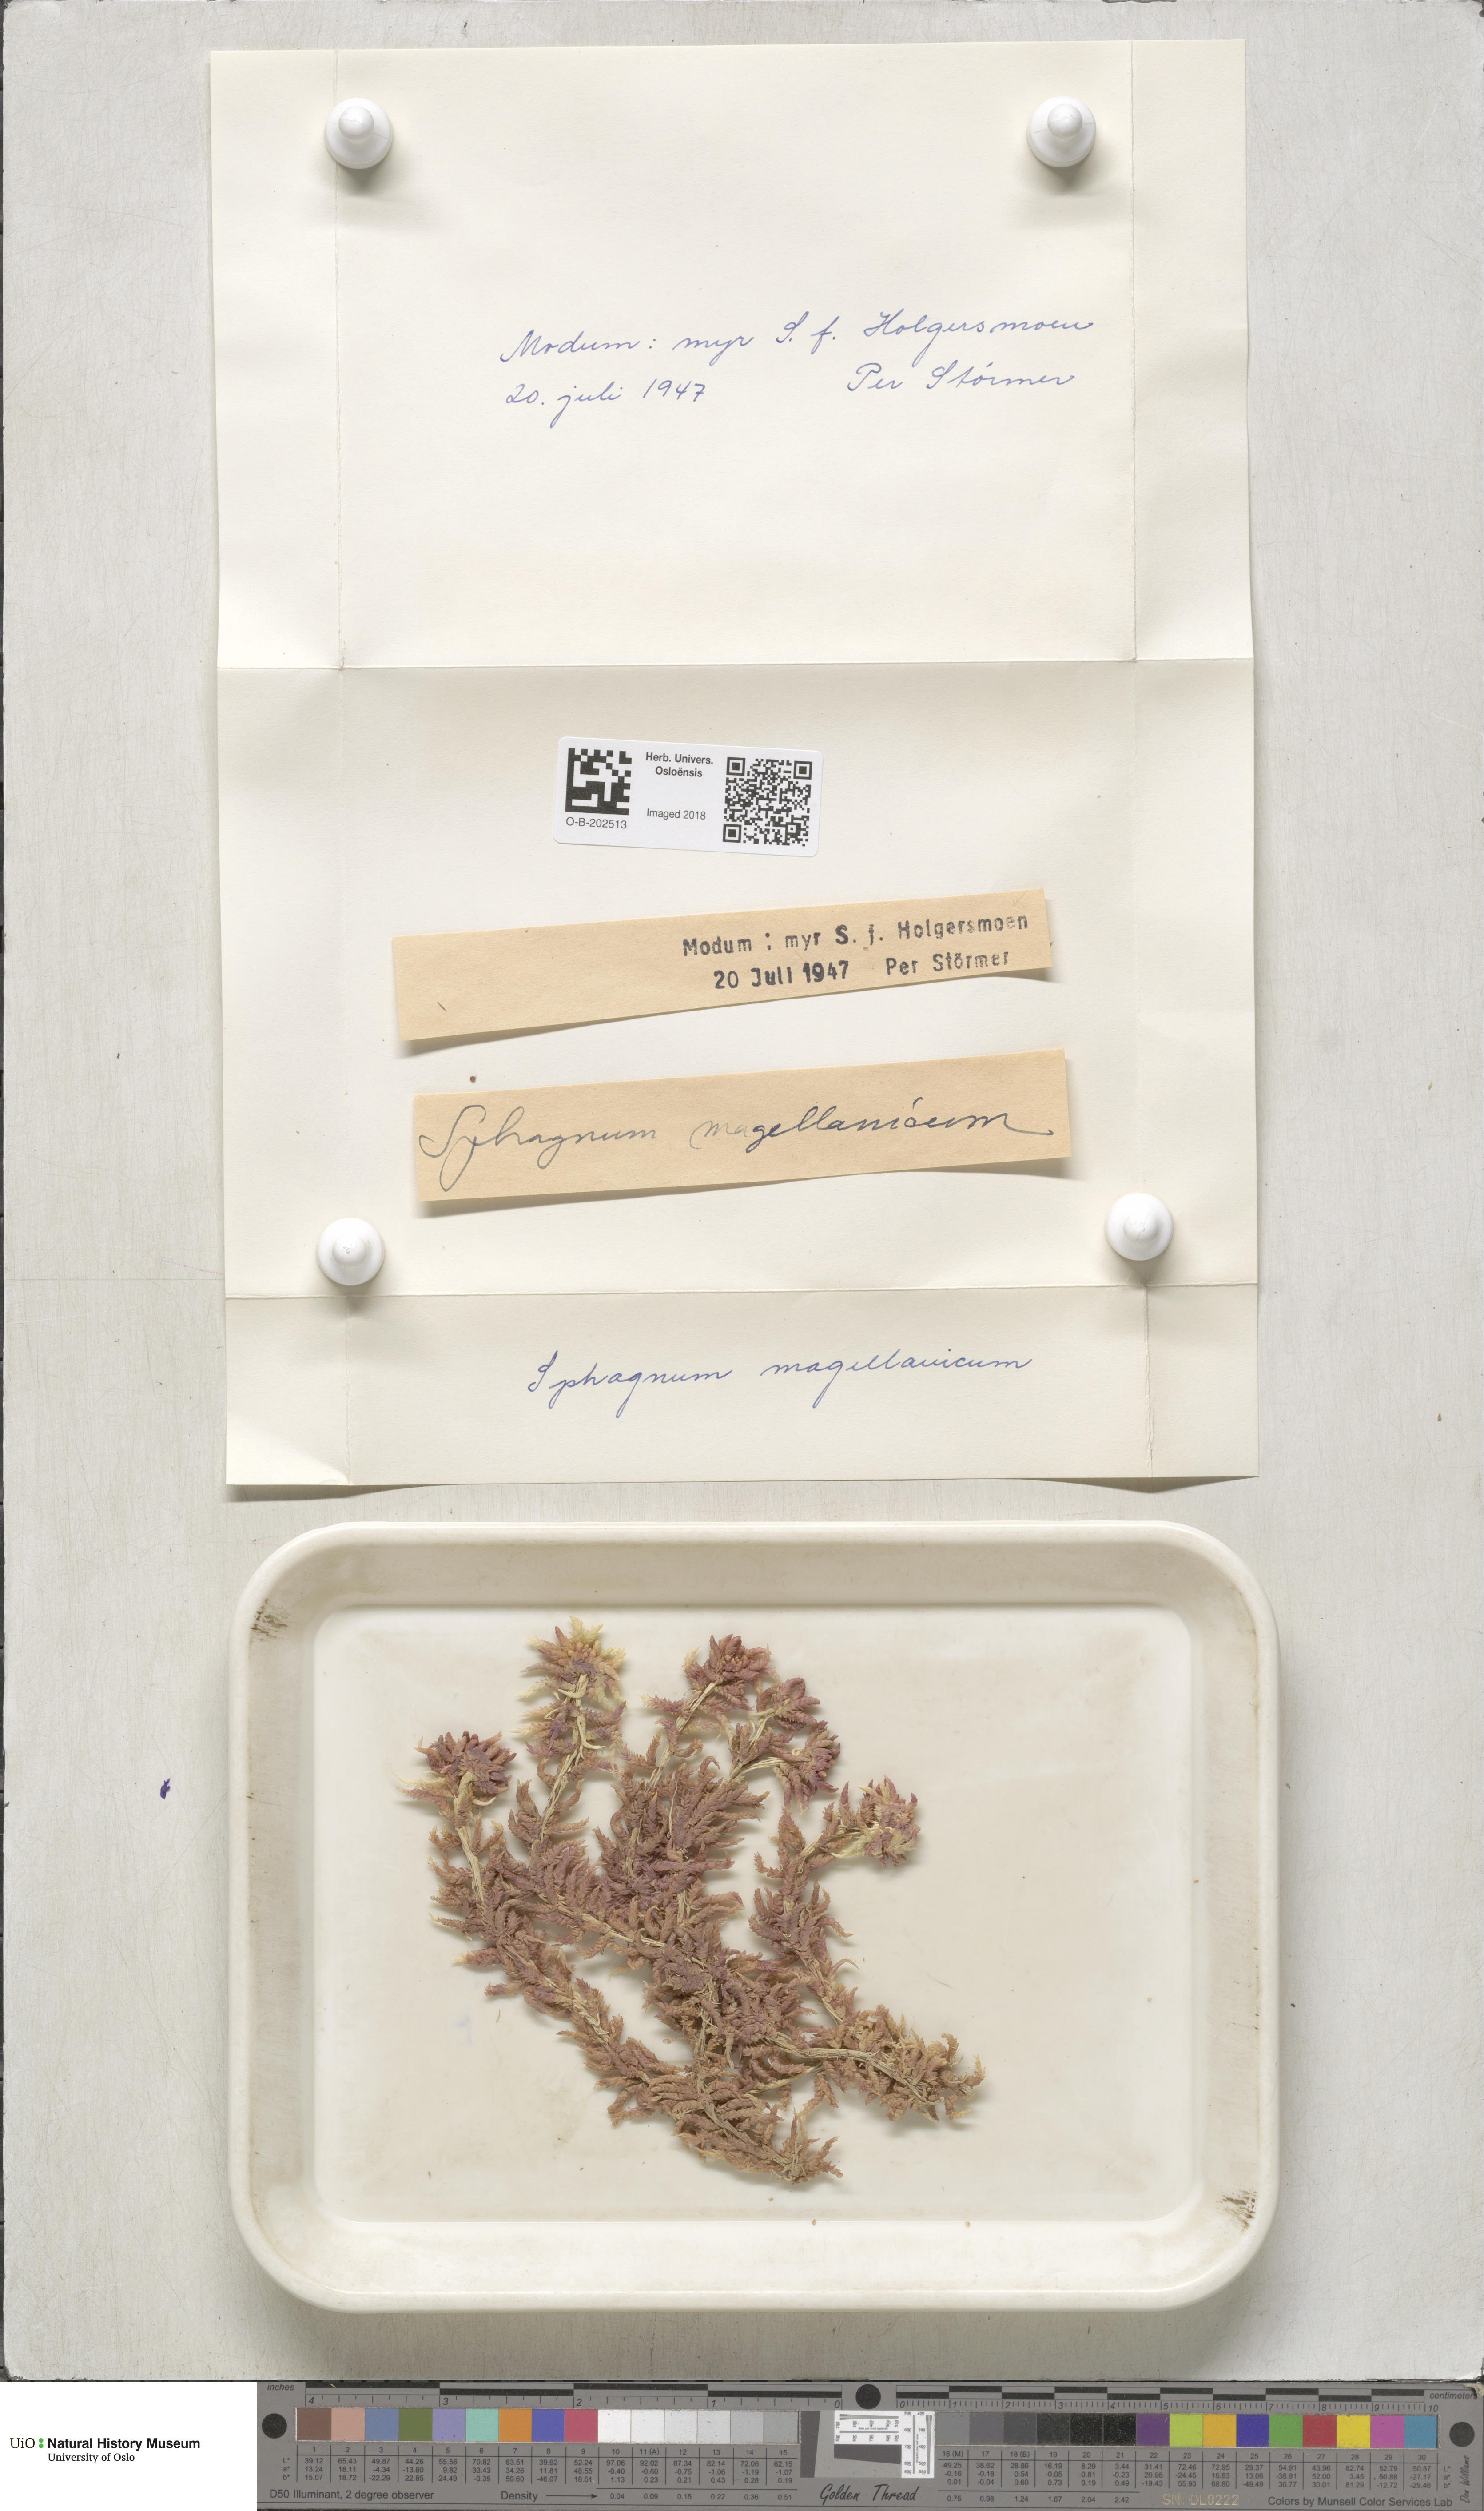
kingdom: Plantae
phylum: Bryophyta
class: Sphagnopsida
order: Sphagnales
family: Sphagnaceae
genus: Sphagnum
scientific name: Sphagnum magellanicum
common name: Magellan's peat moss
